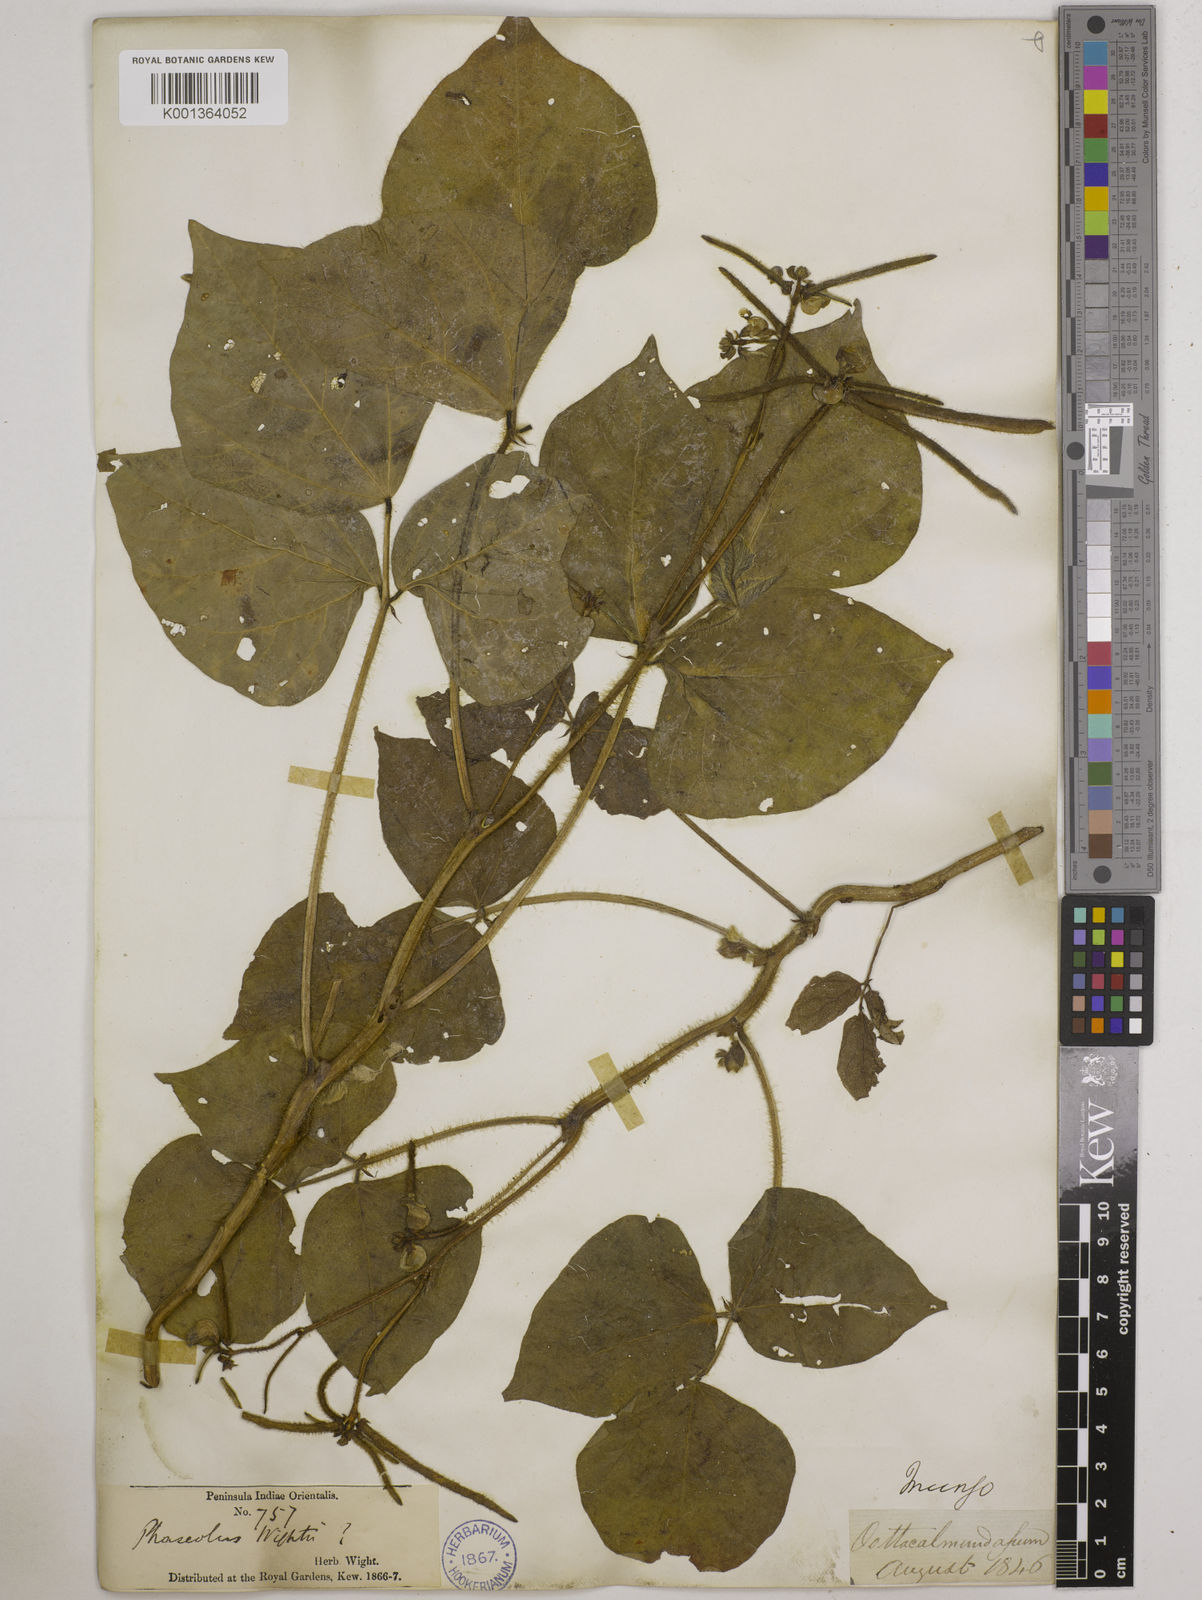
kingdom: Plantae
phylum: Tracheophyta
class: Magnoliopsida
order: Fabales
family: Fabaceae
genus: Vigna
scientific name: Vigna radiata
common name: Mung-bean
